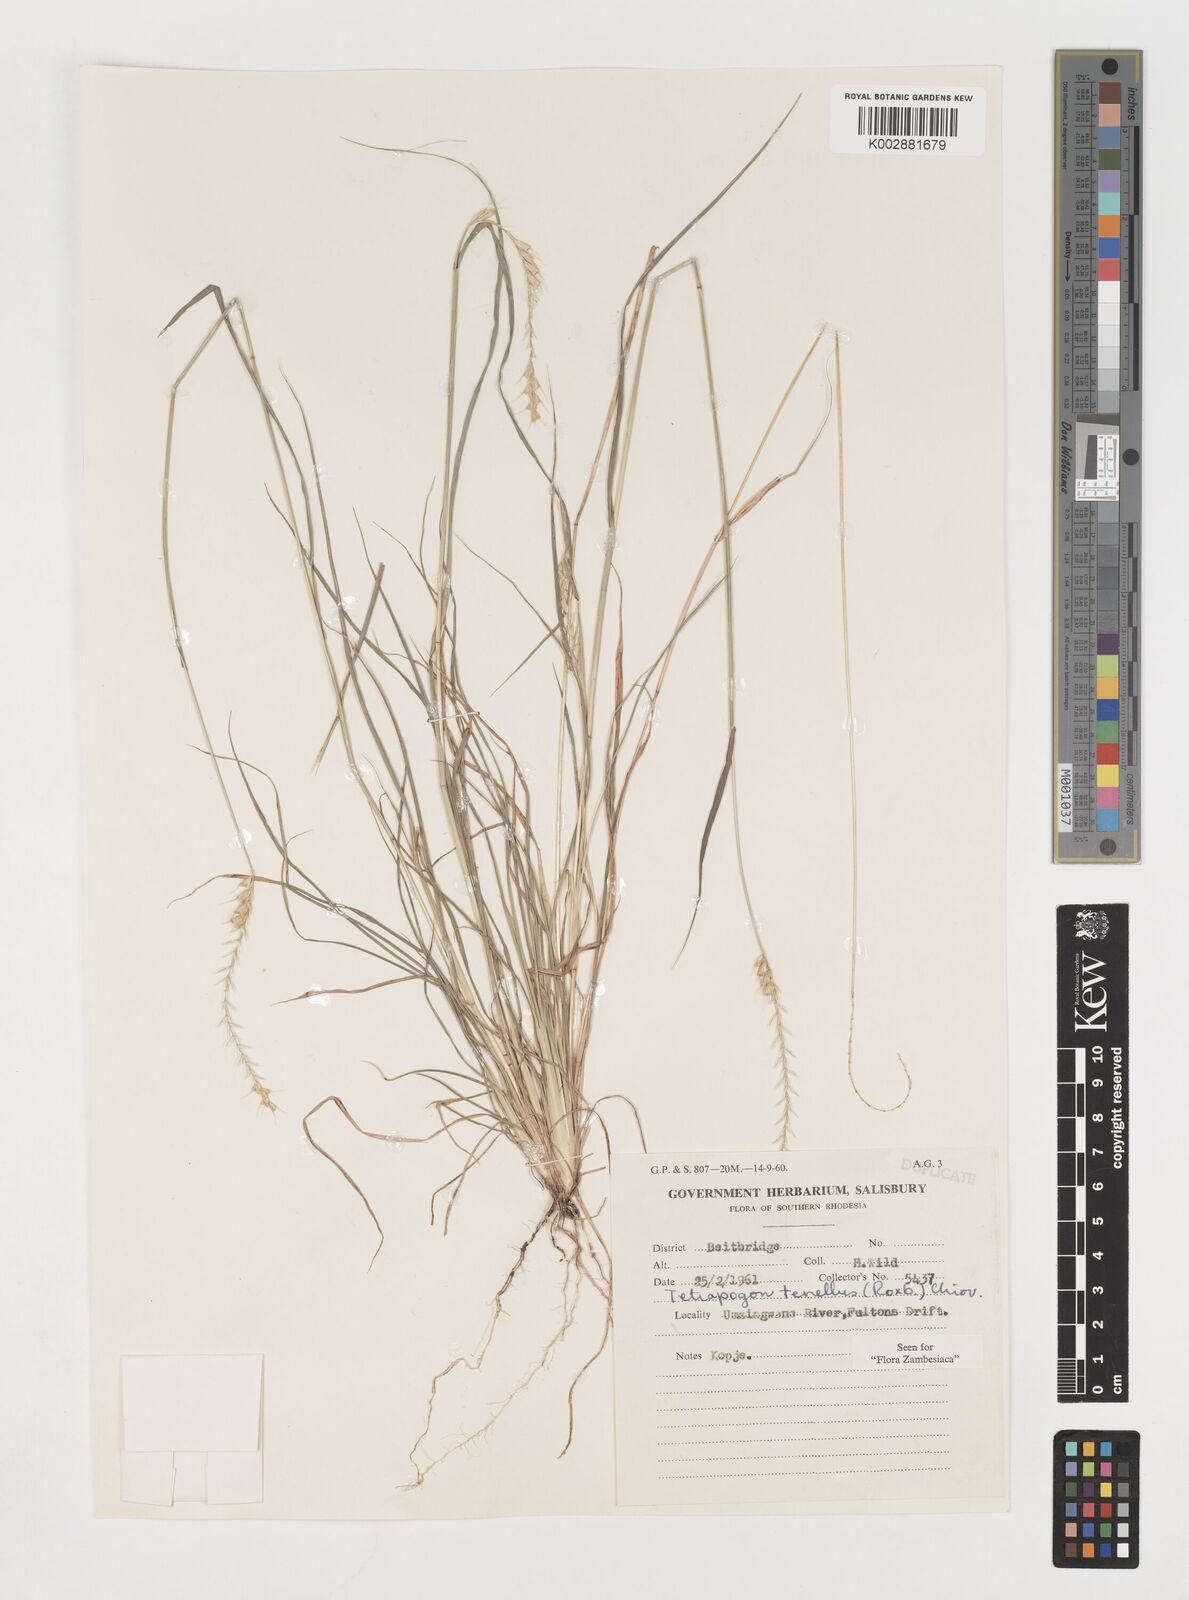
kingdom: Plantae
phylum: Tracheophyta
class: Liliopsida
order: Poales
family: Poaceae
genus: Tetrapogon
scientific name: Tetrapogon tenellus
